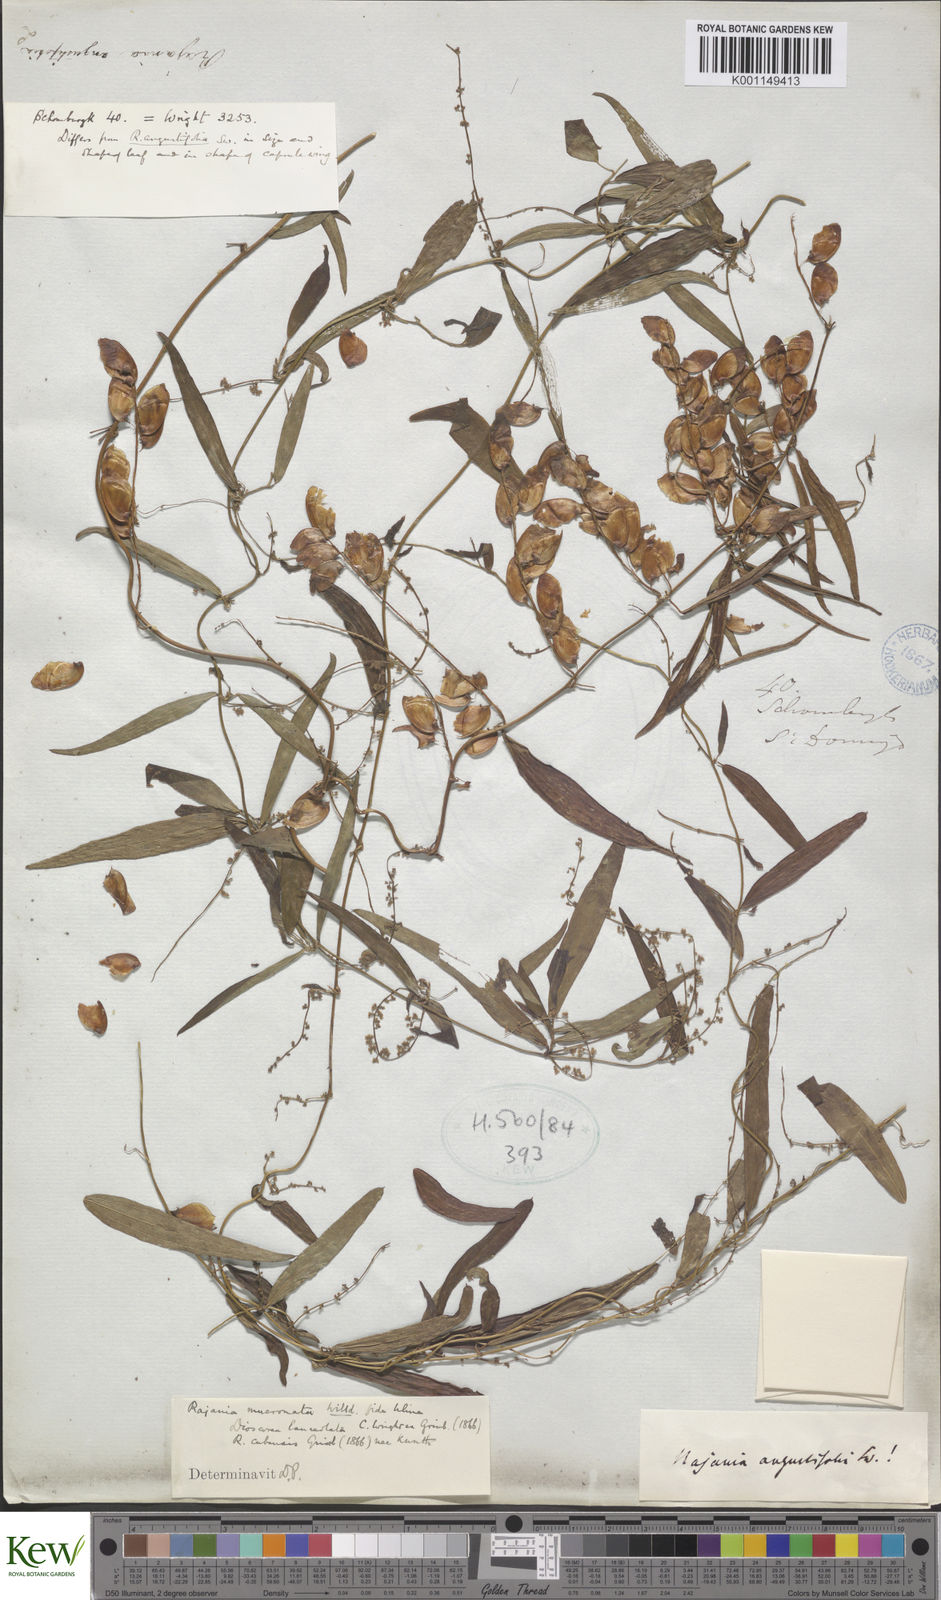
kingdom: Plantae
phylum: Tracheophyta
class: Liliopsida
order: Dioscoreales
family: Dioscoreaceae
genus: Dioscorea
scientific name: Dioscorea
